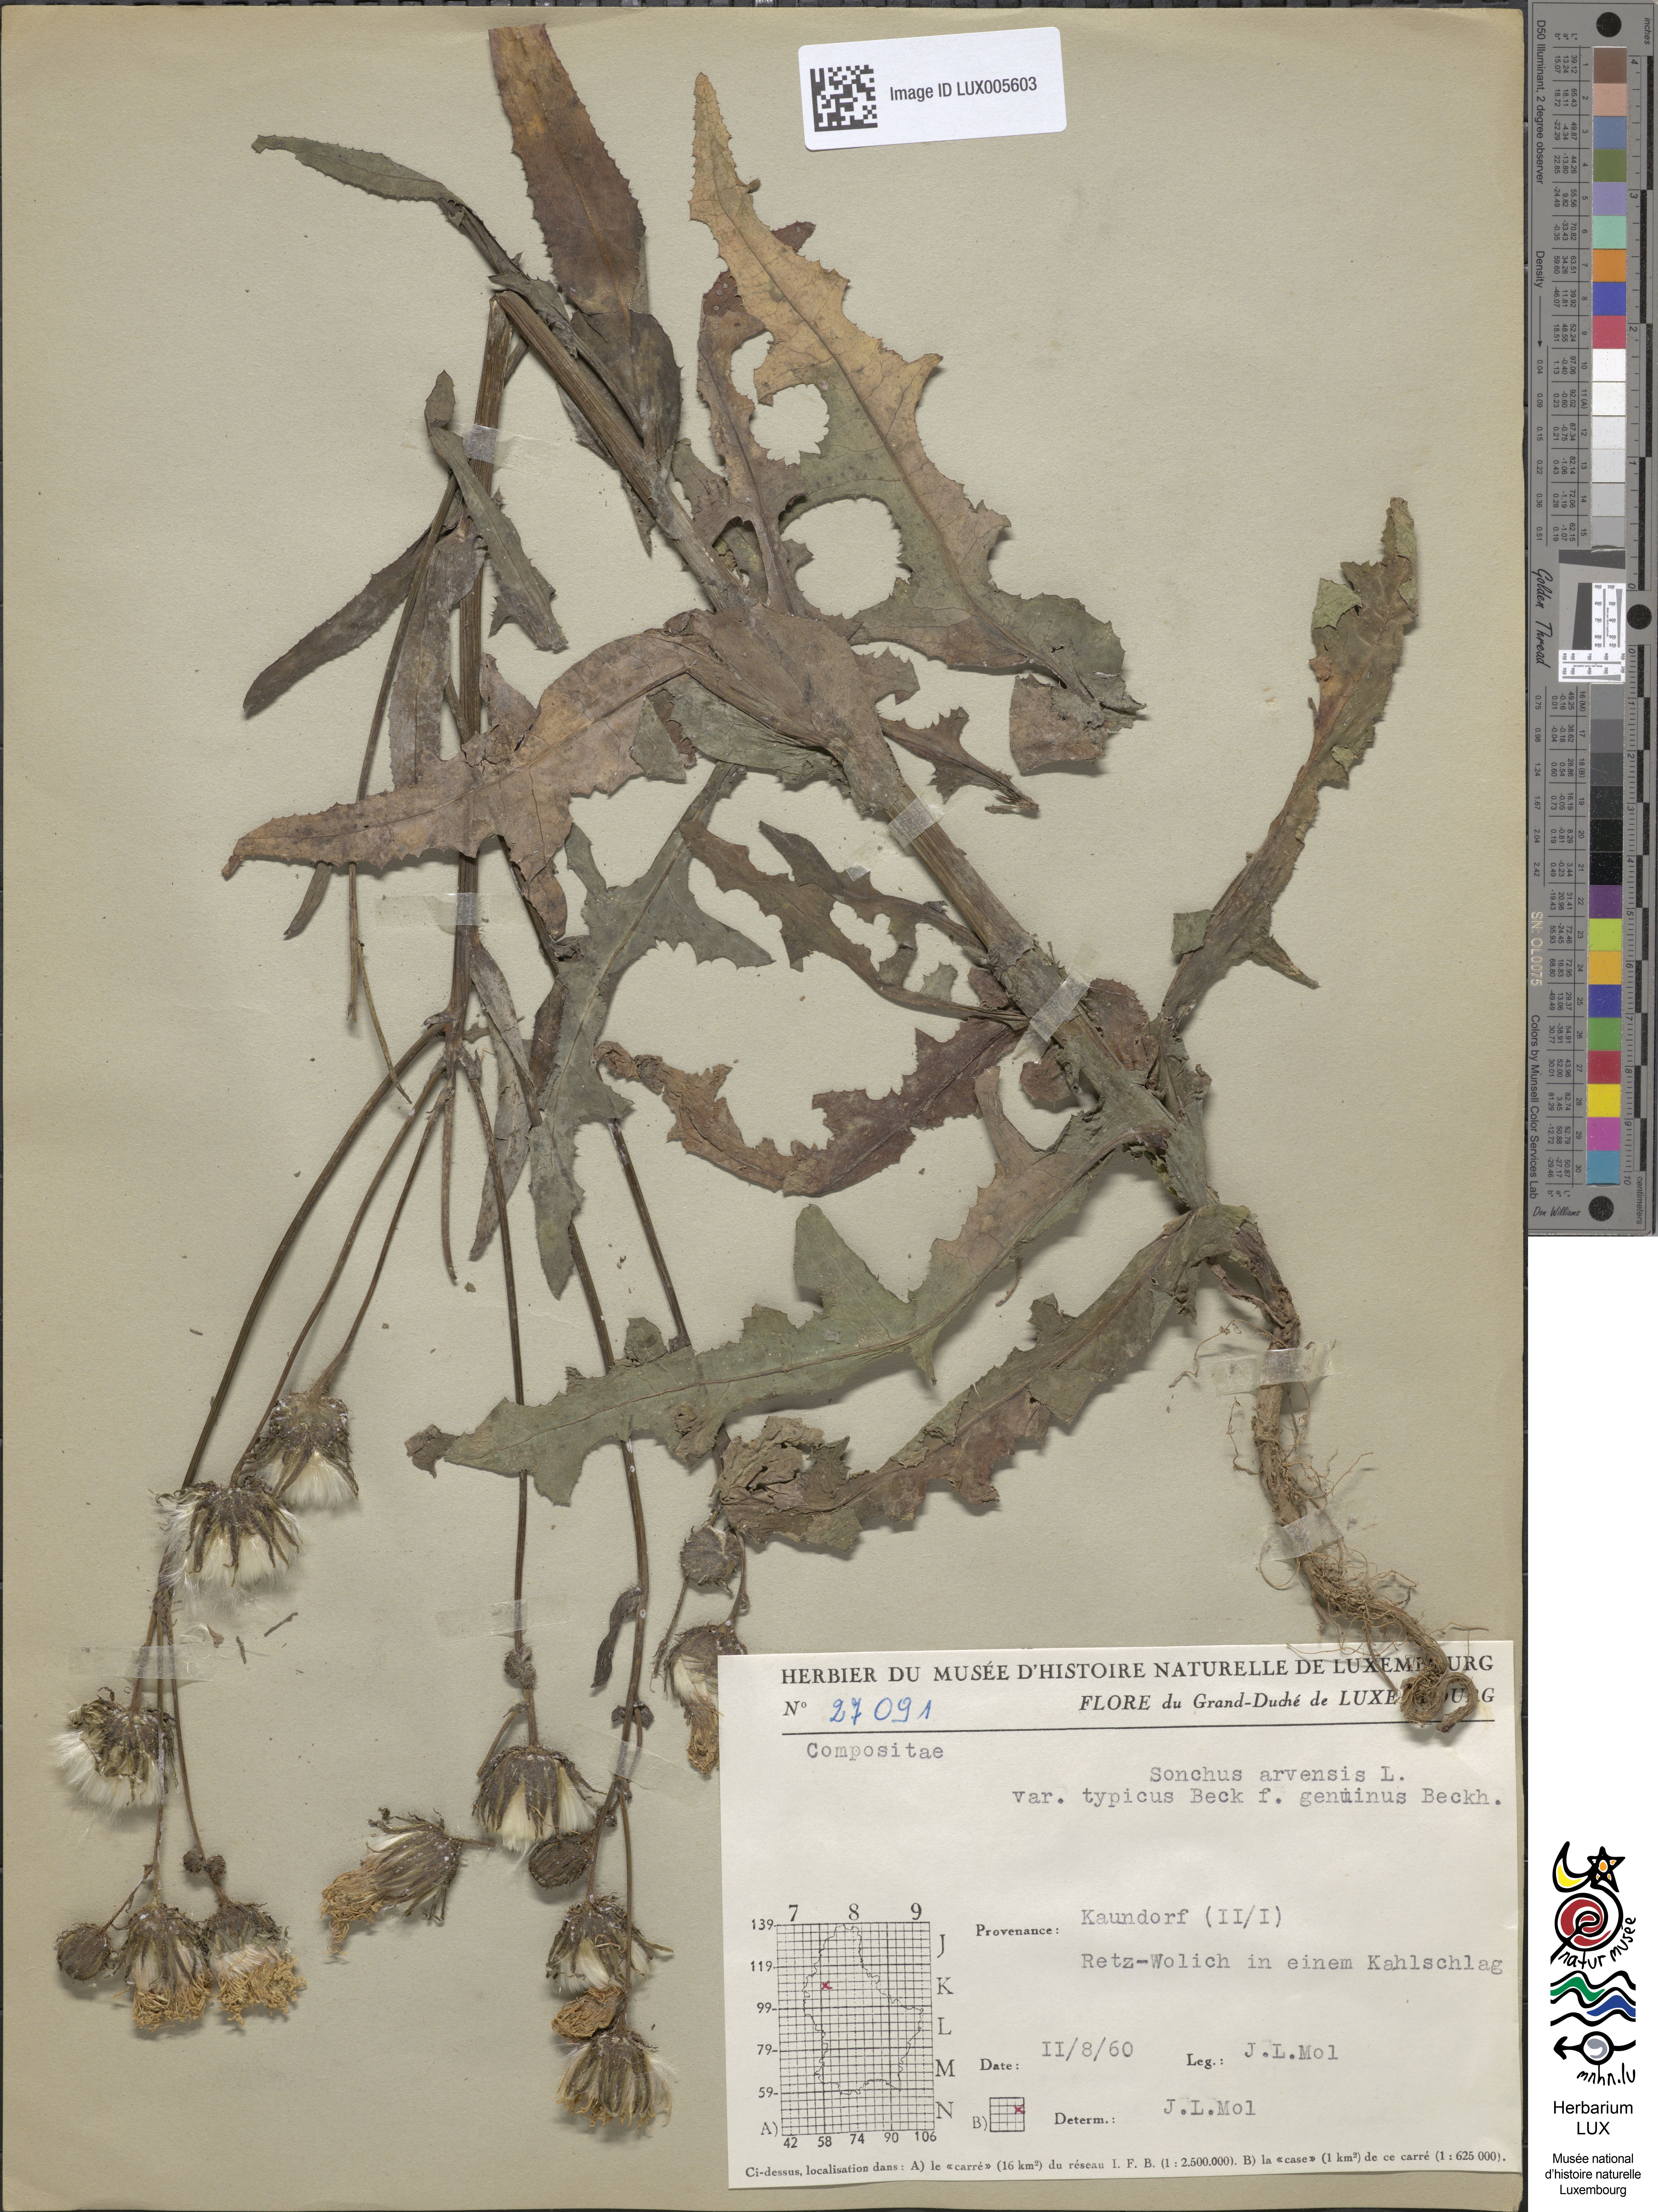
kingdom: Plantae
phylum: Tracheophyta
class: Magnoliopsida
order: Asterales
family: Asteraceae
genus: Sonchus
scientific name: Sonchus arvensis
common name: Perennial sow-thistle
